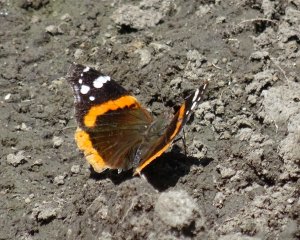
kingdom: Animalia
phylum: Arthropoda
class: Insecta
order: Lepidoptera
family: Nymphalidae
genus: Vanessa
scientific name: Vanessa atalanta
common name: Red Admiral
